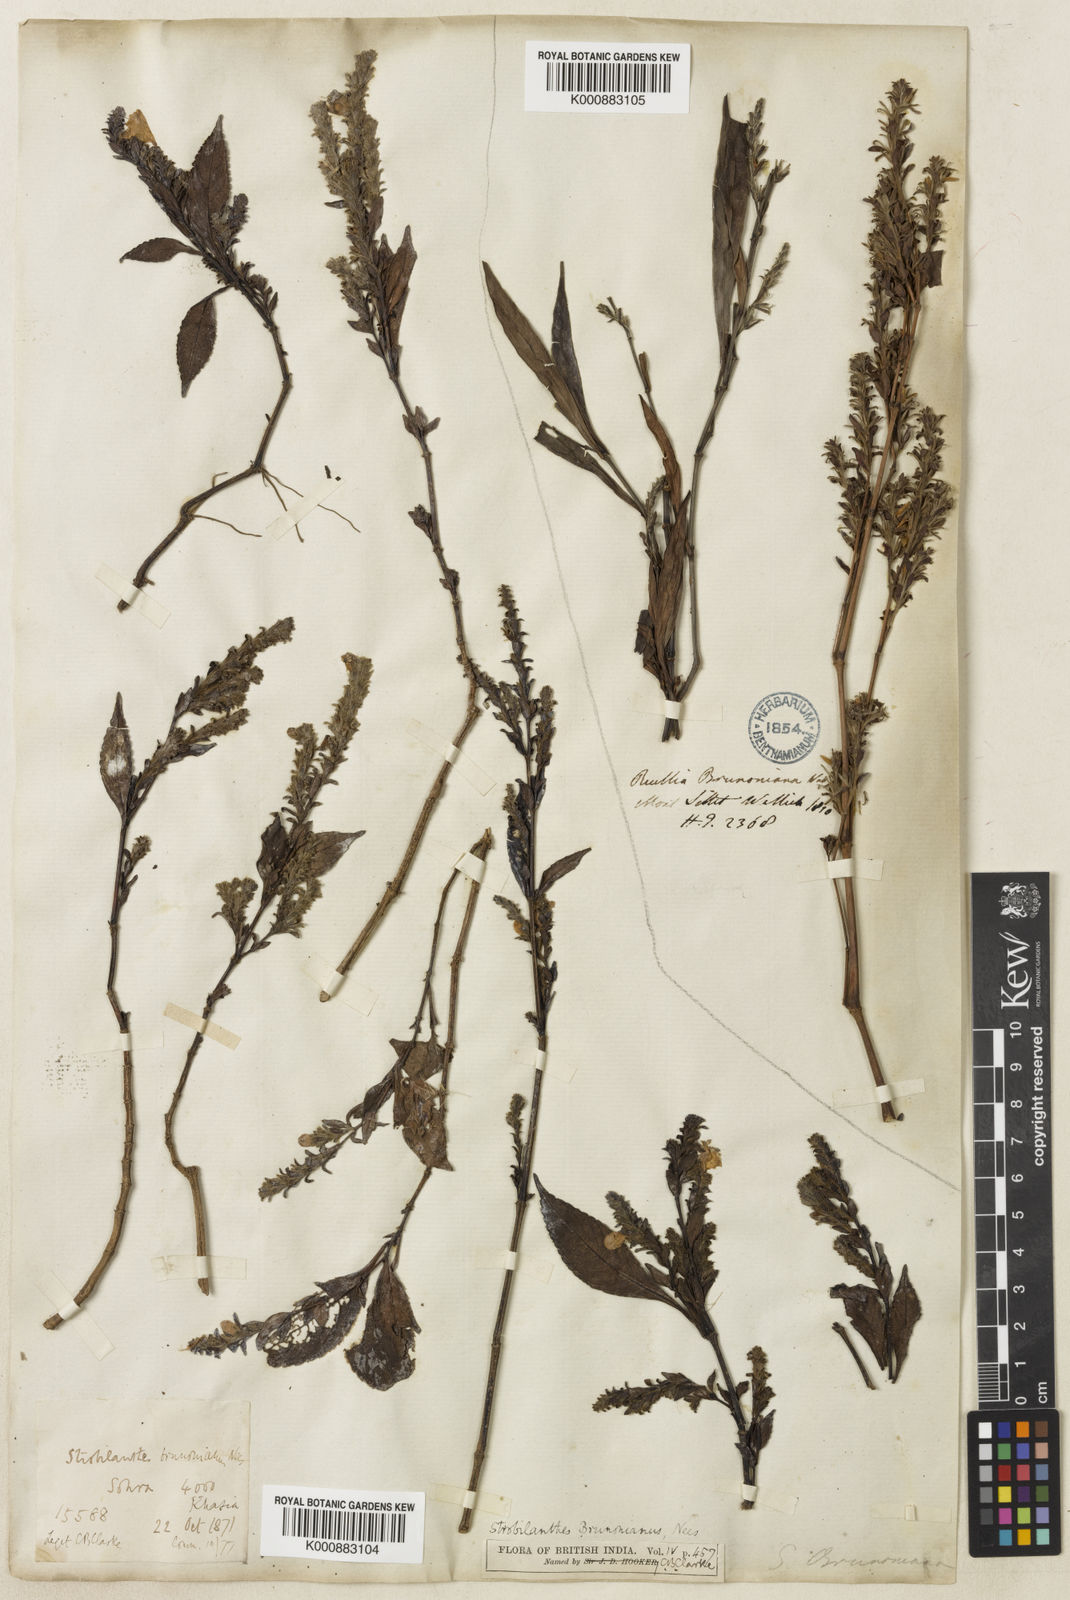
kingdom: Plantae
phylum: Tracheophyta
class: Magnoliopsida
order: Lamiales
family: Acanthaceae
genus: Strobilanthes
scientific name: Strobilanthes brunoniana
